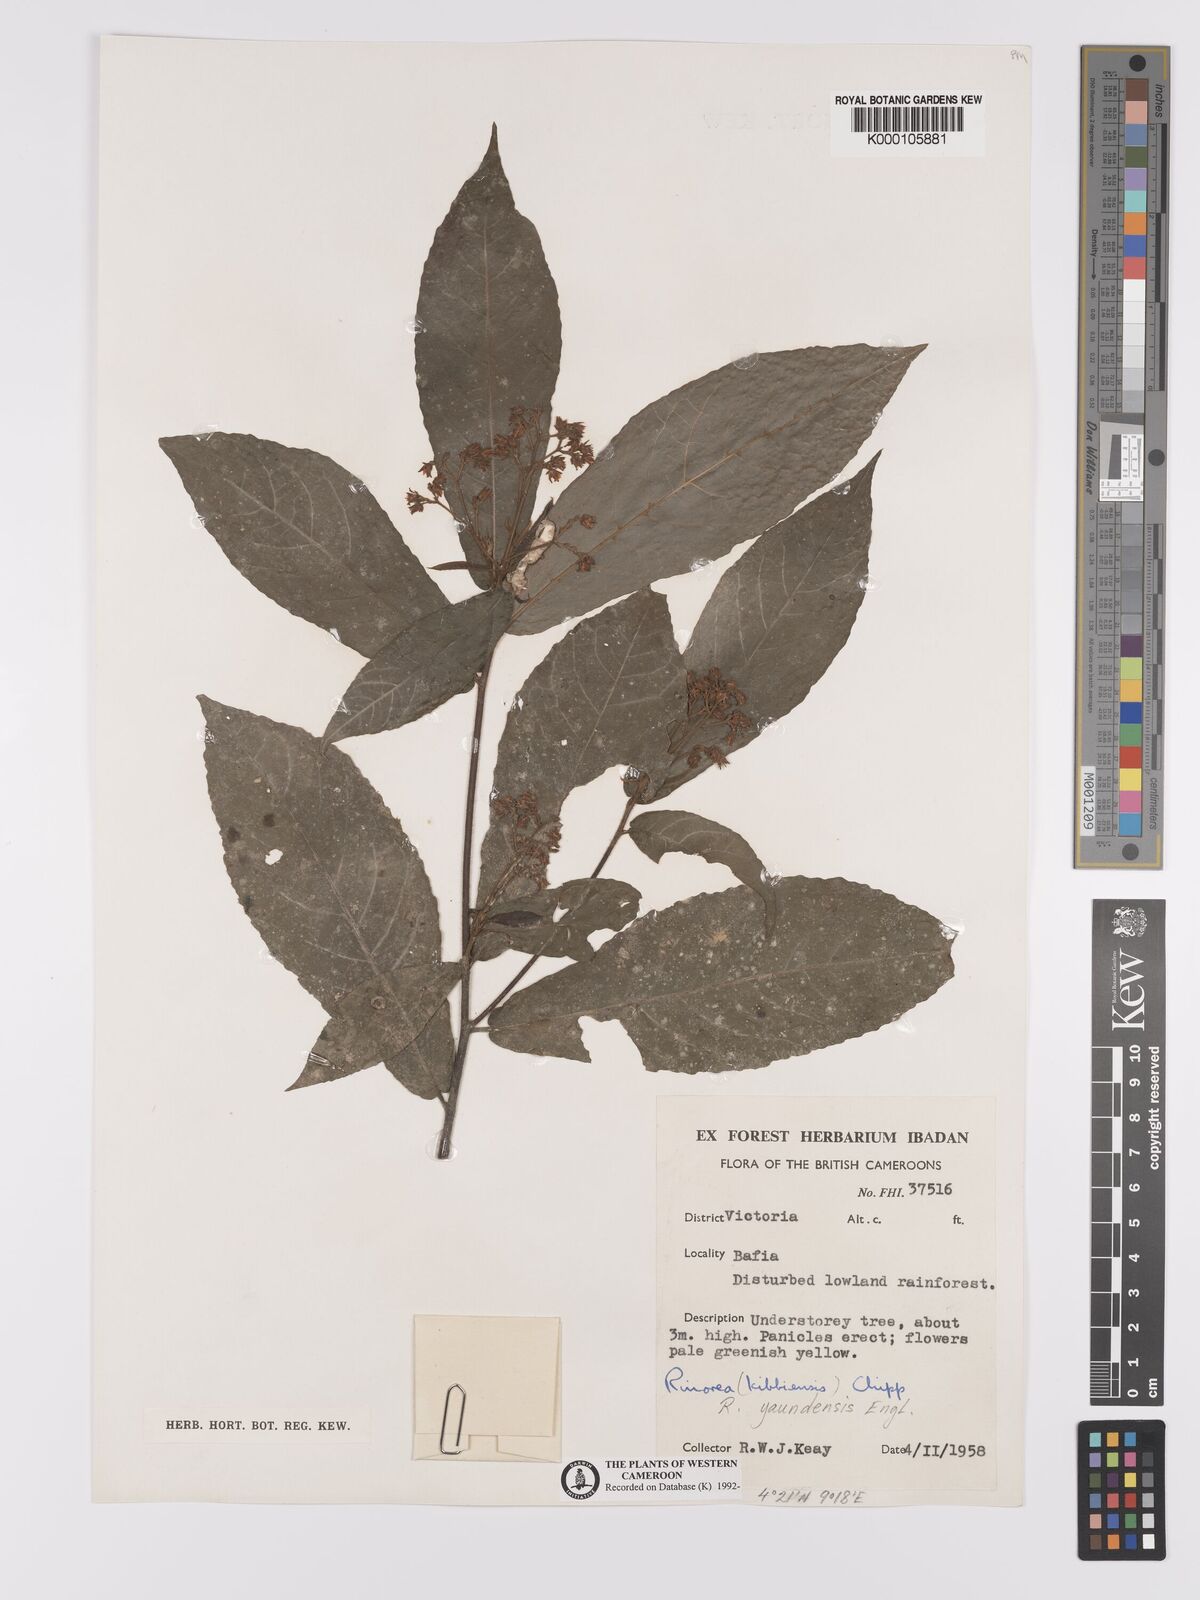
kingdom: Plantae
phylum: Tracheophyta
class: Magnoliopsida
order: Malpighiales
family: Violaceae
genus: Rinorea
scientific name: Rinorea yaundensis
